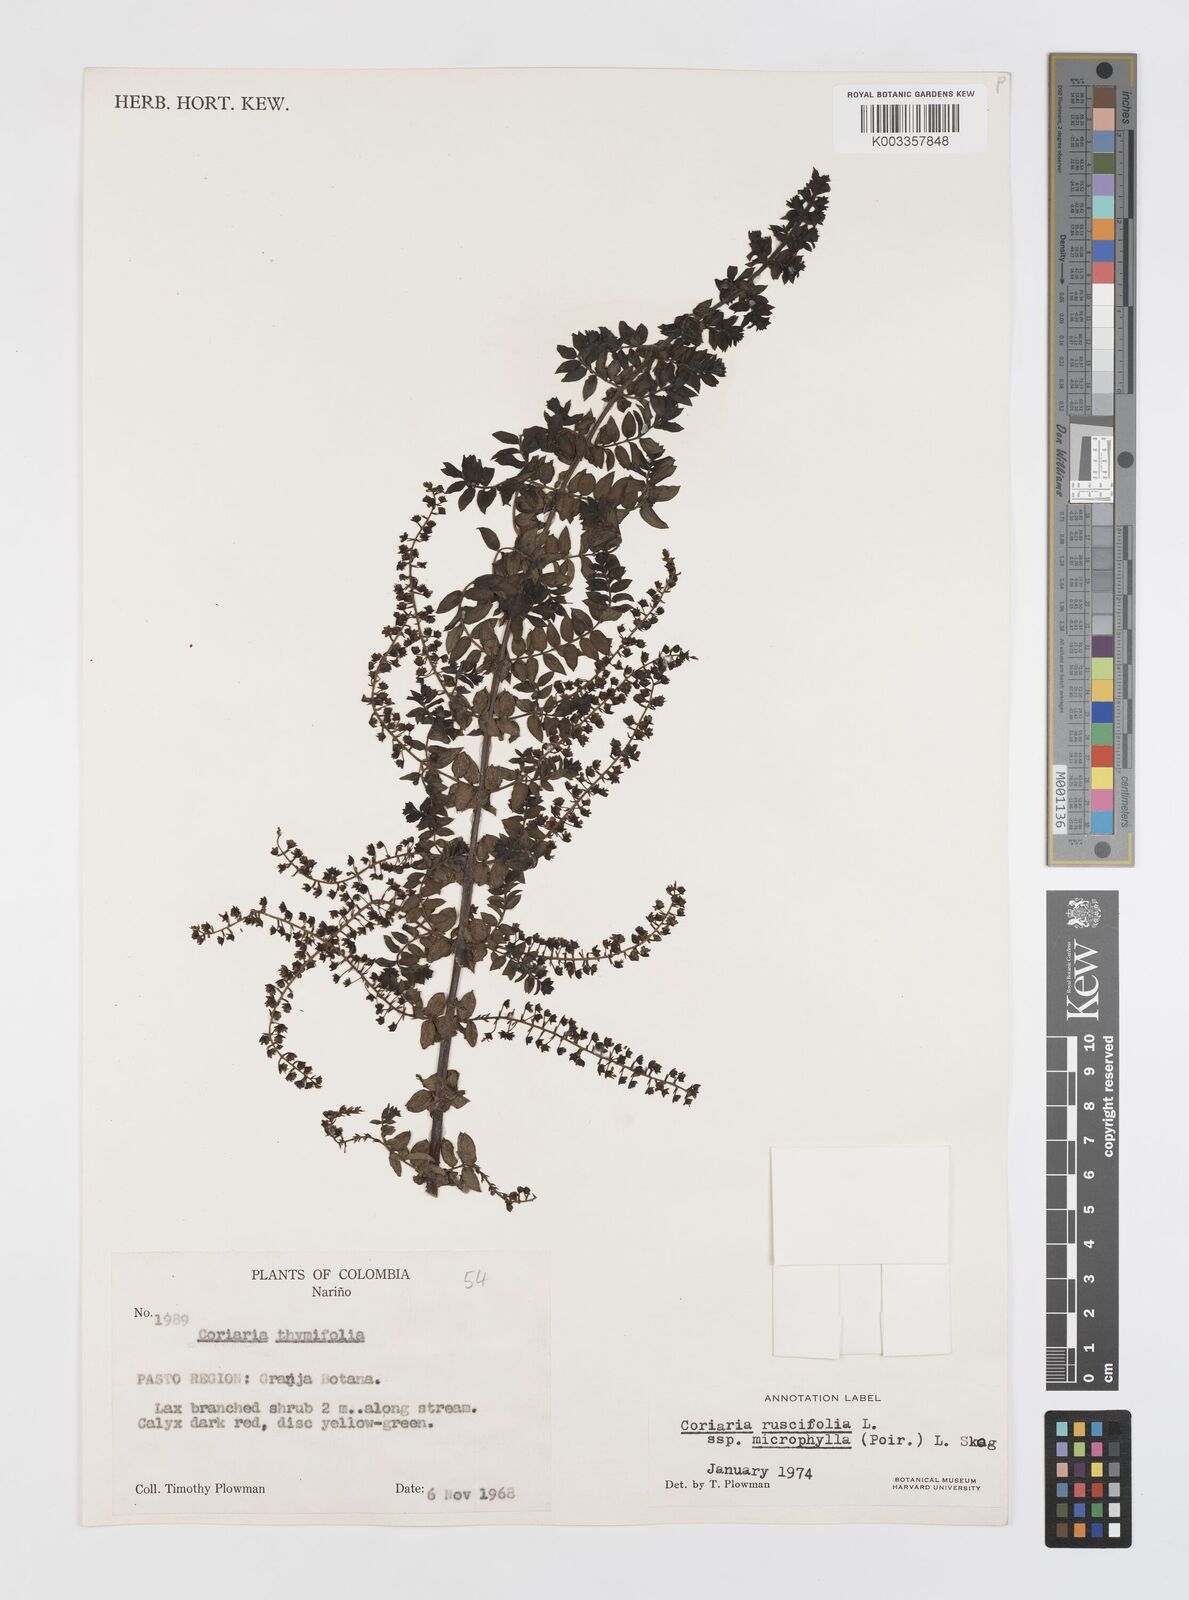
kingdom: Plantae
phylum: Tracheophyta
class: Magnoliopsida
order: Cucurbitales
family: Coriariaceae
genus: Coriaria
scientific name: Coriaria microphylla
